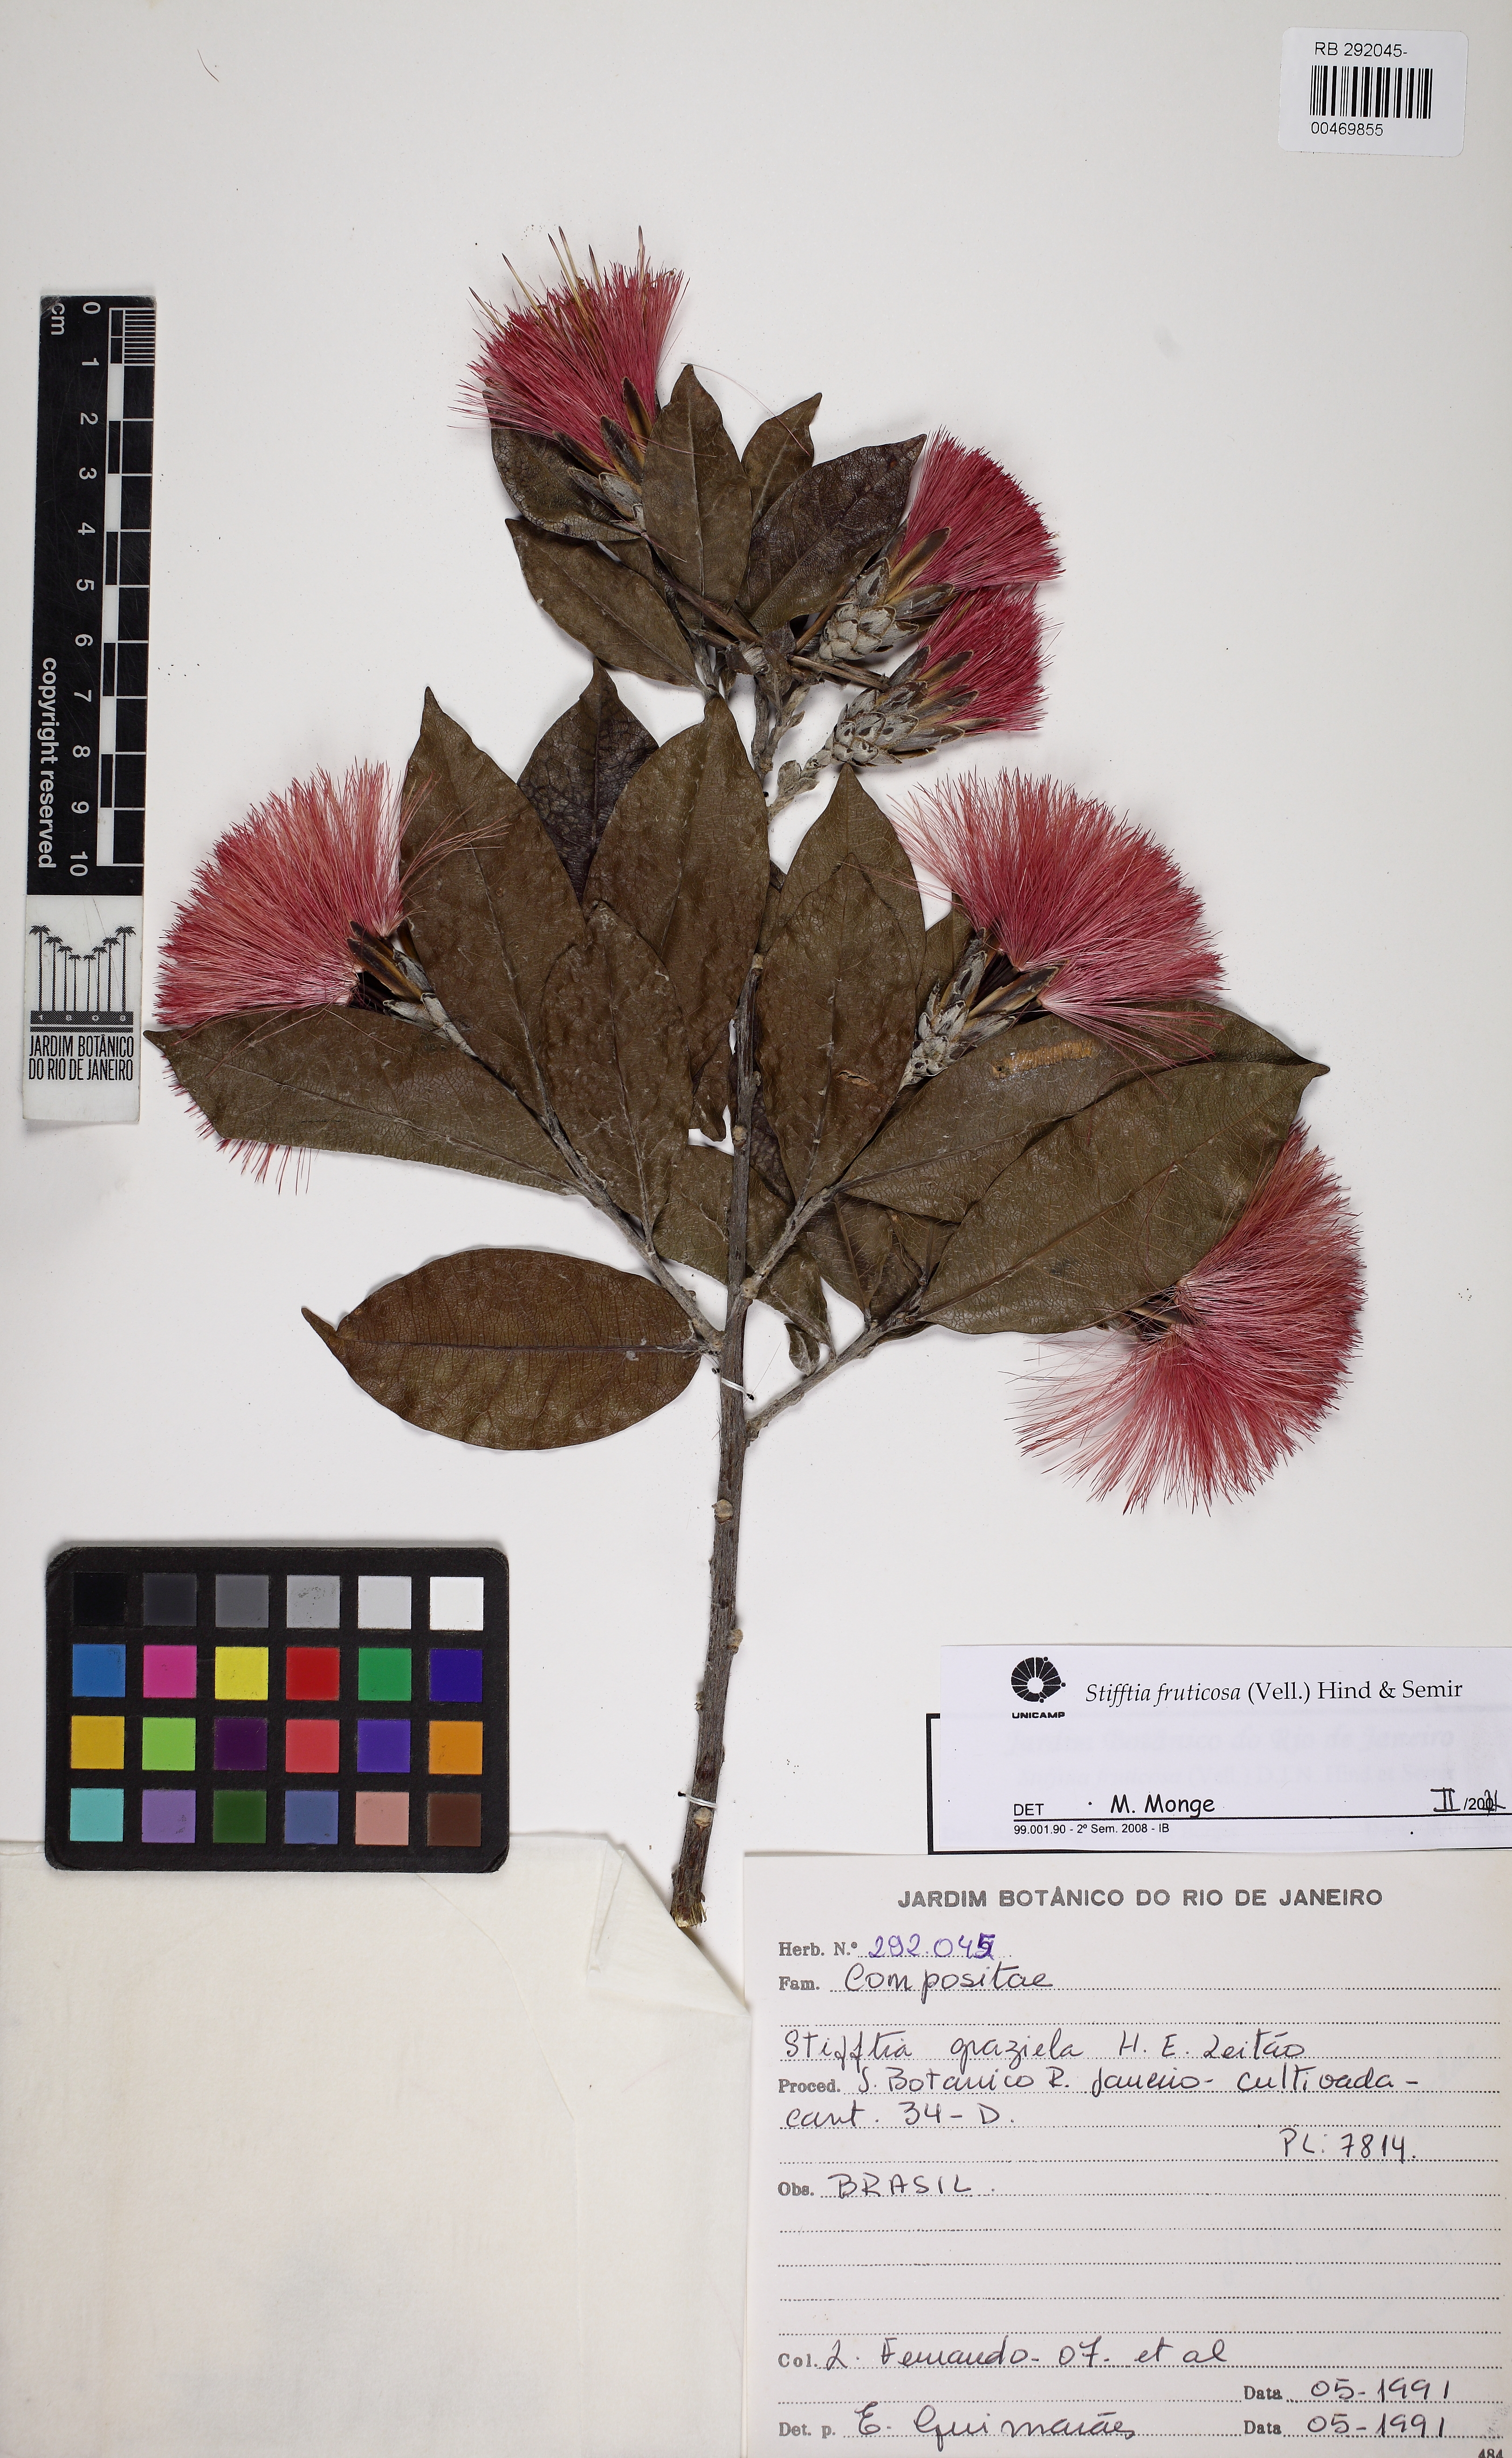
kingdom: Plantae
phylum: Tracheophyta
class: Magnoliopsida
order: Asterales
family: Asteraceae
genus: Stifftia
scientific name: Stifftia fruticosa
